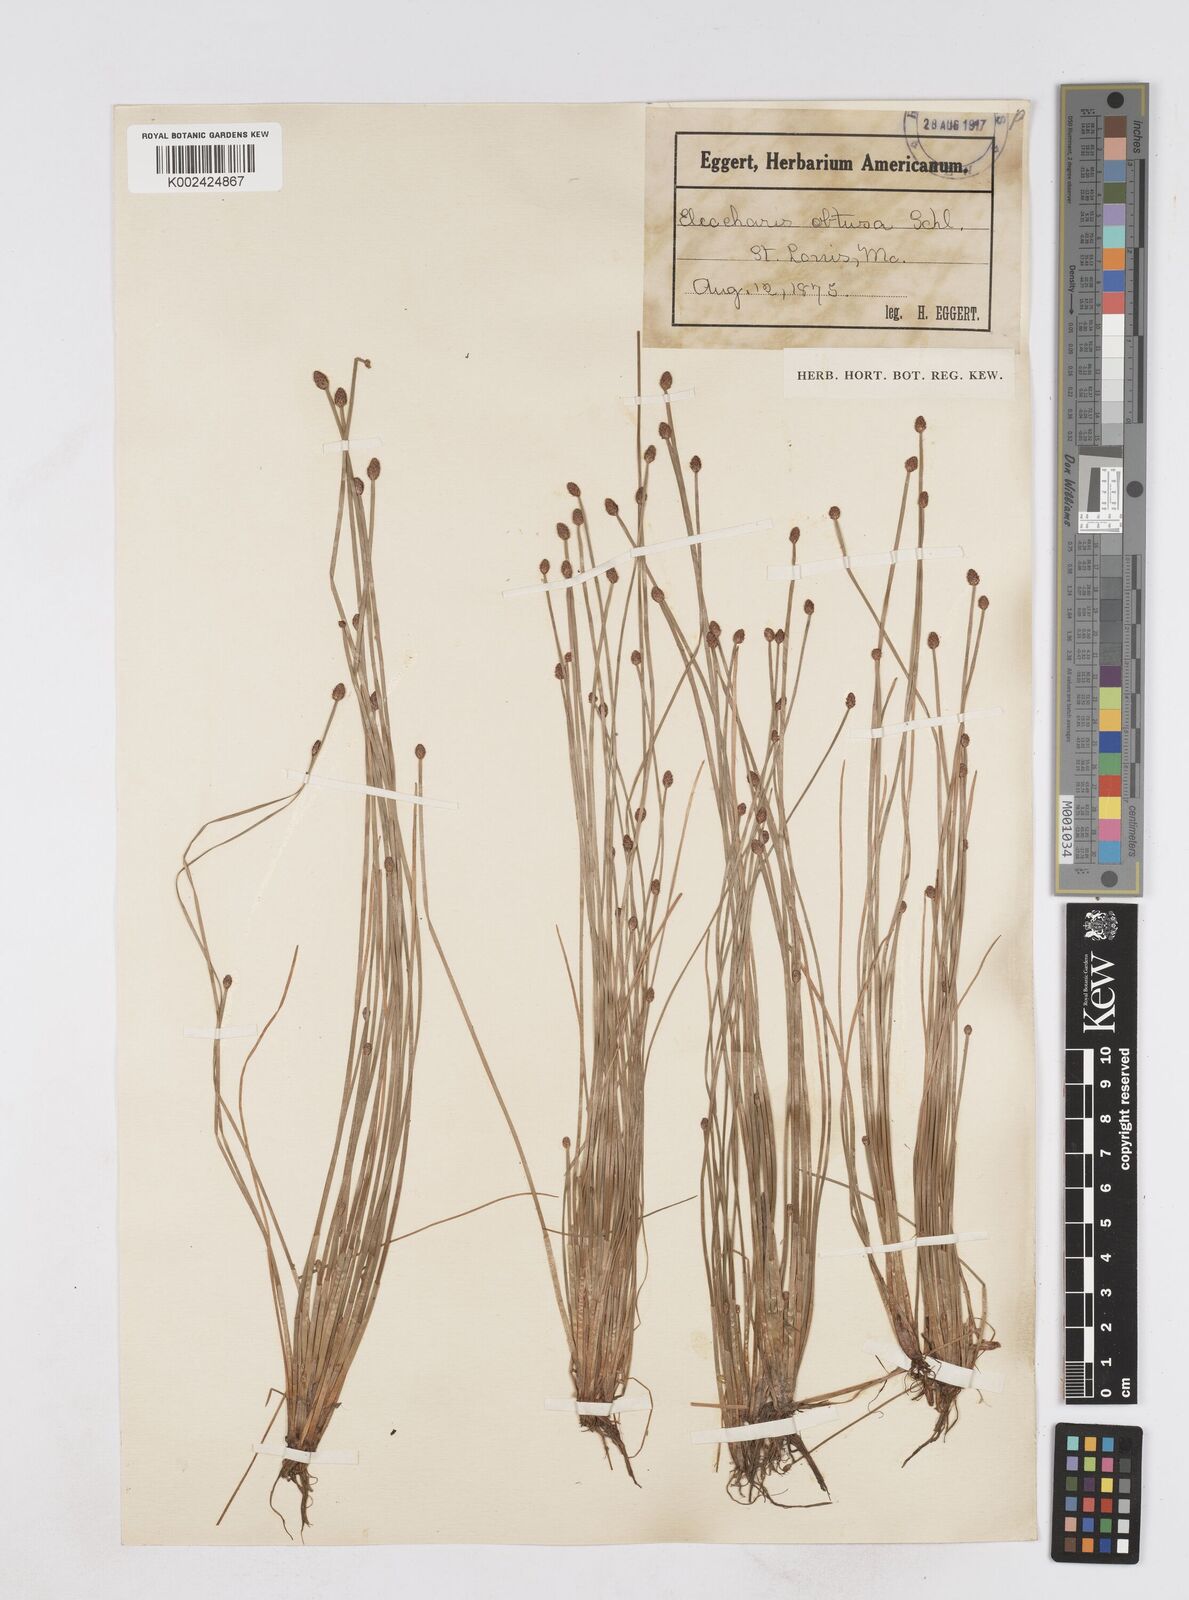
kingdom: Plantae
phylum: Tracheophyta
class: Liliopsida
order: Poales
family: Cyperaceae
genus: Eleocharis
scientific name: Eleocharis obtusa
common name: Blunt spikerush
